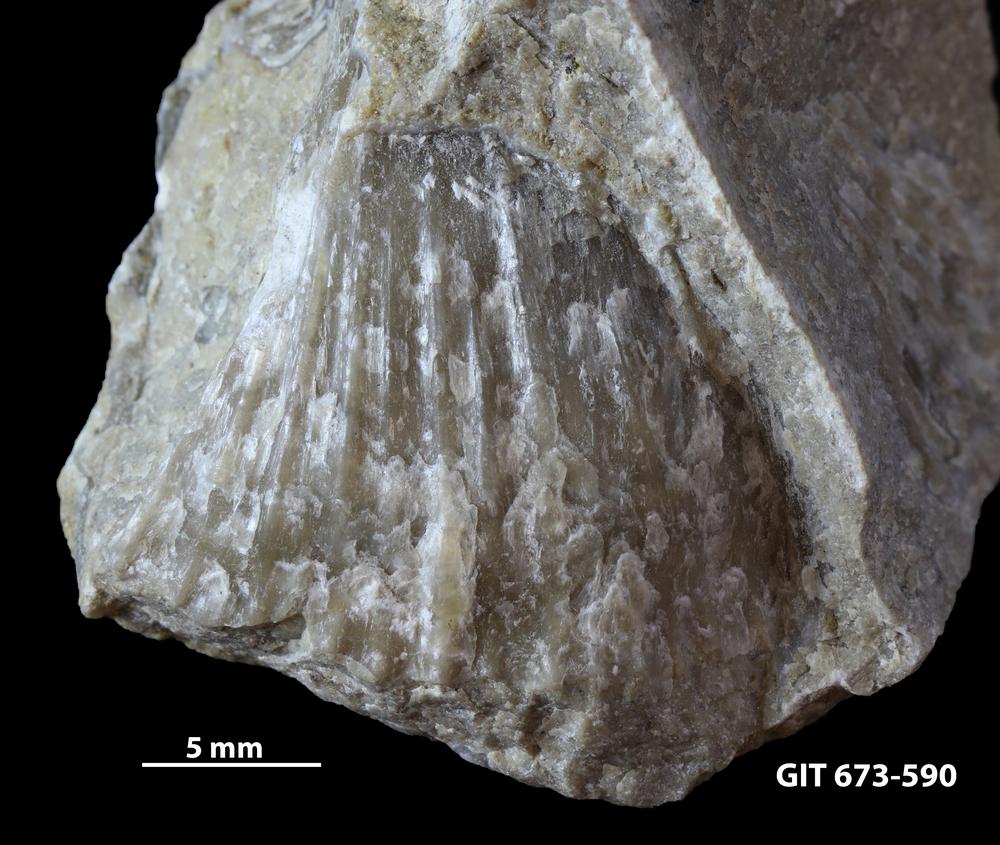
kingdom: Animalia
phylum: Brachiopoda
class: Rhynchonellata
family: Hesperorthidae
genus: Boreadorthis
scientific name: Boreadorthis recula
